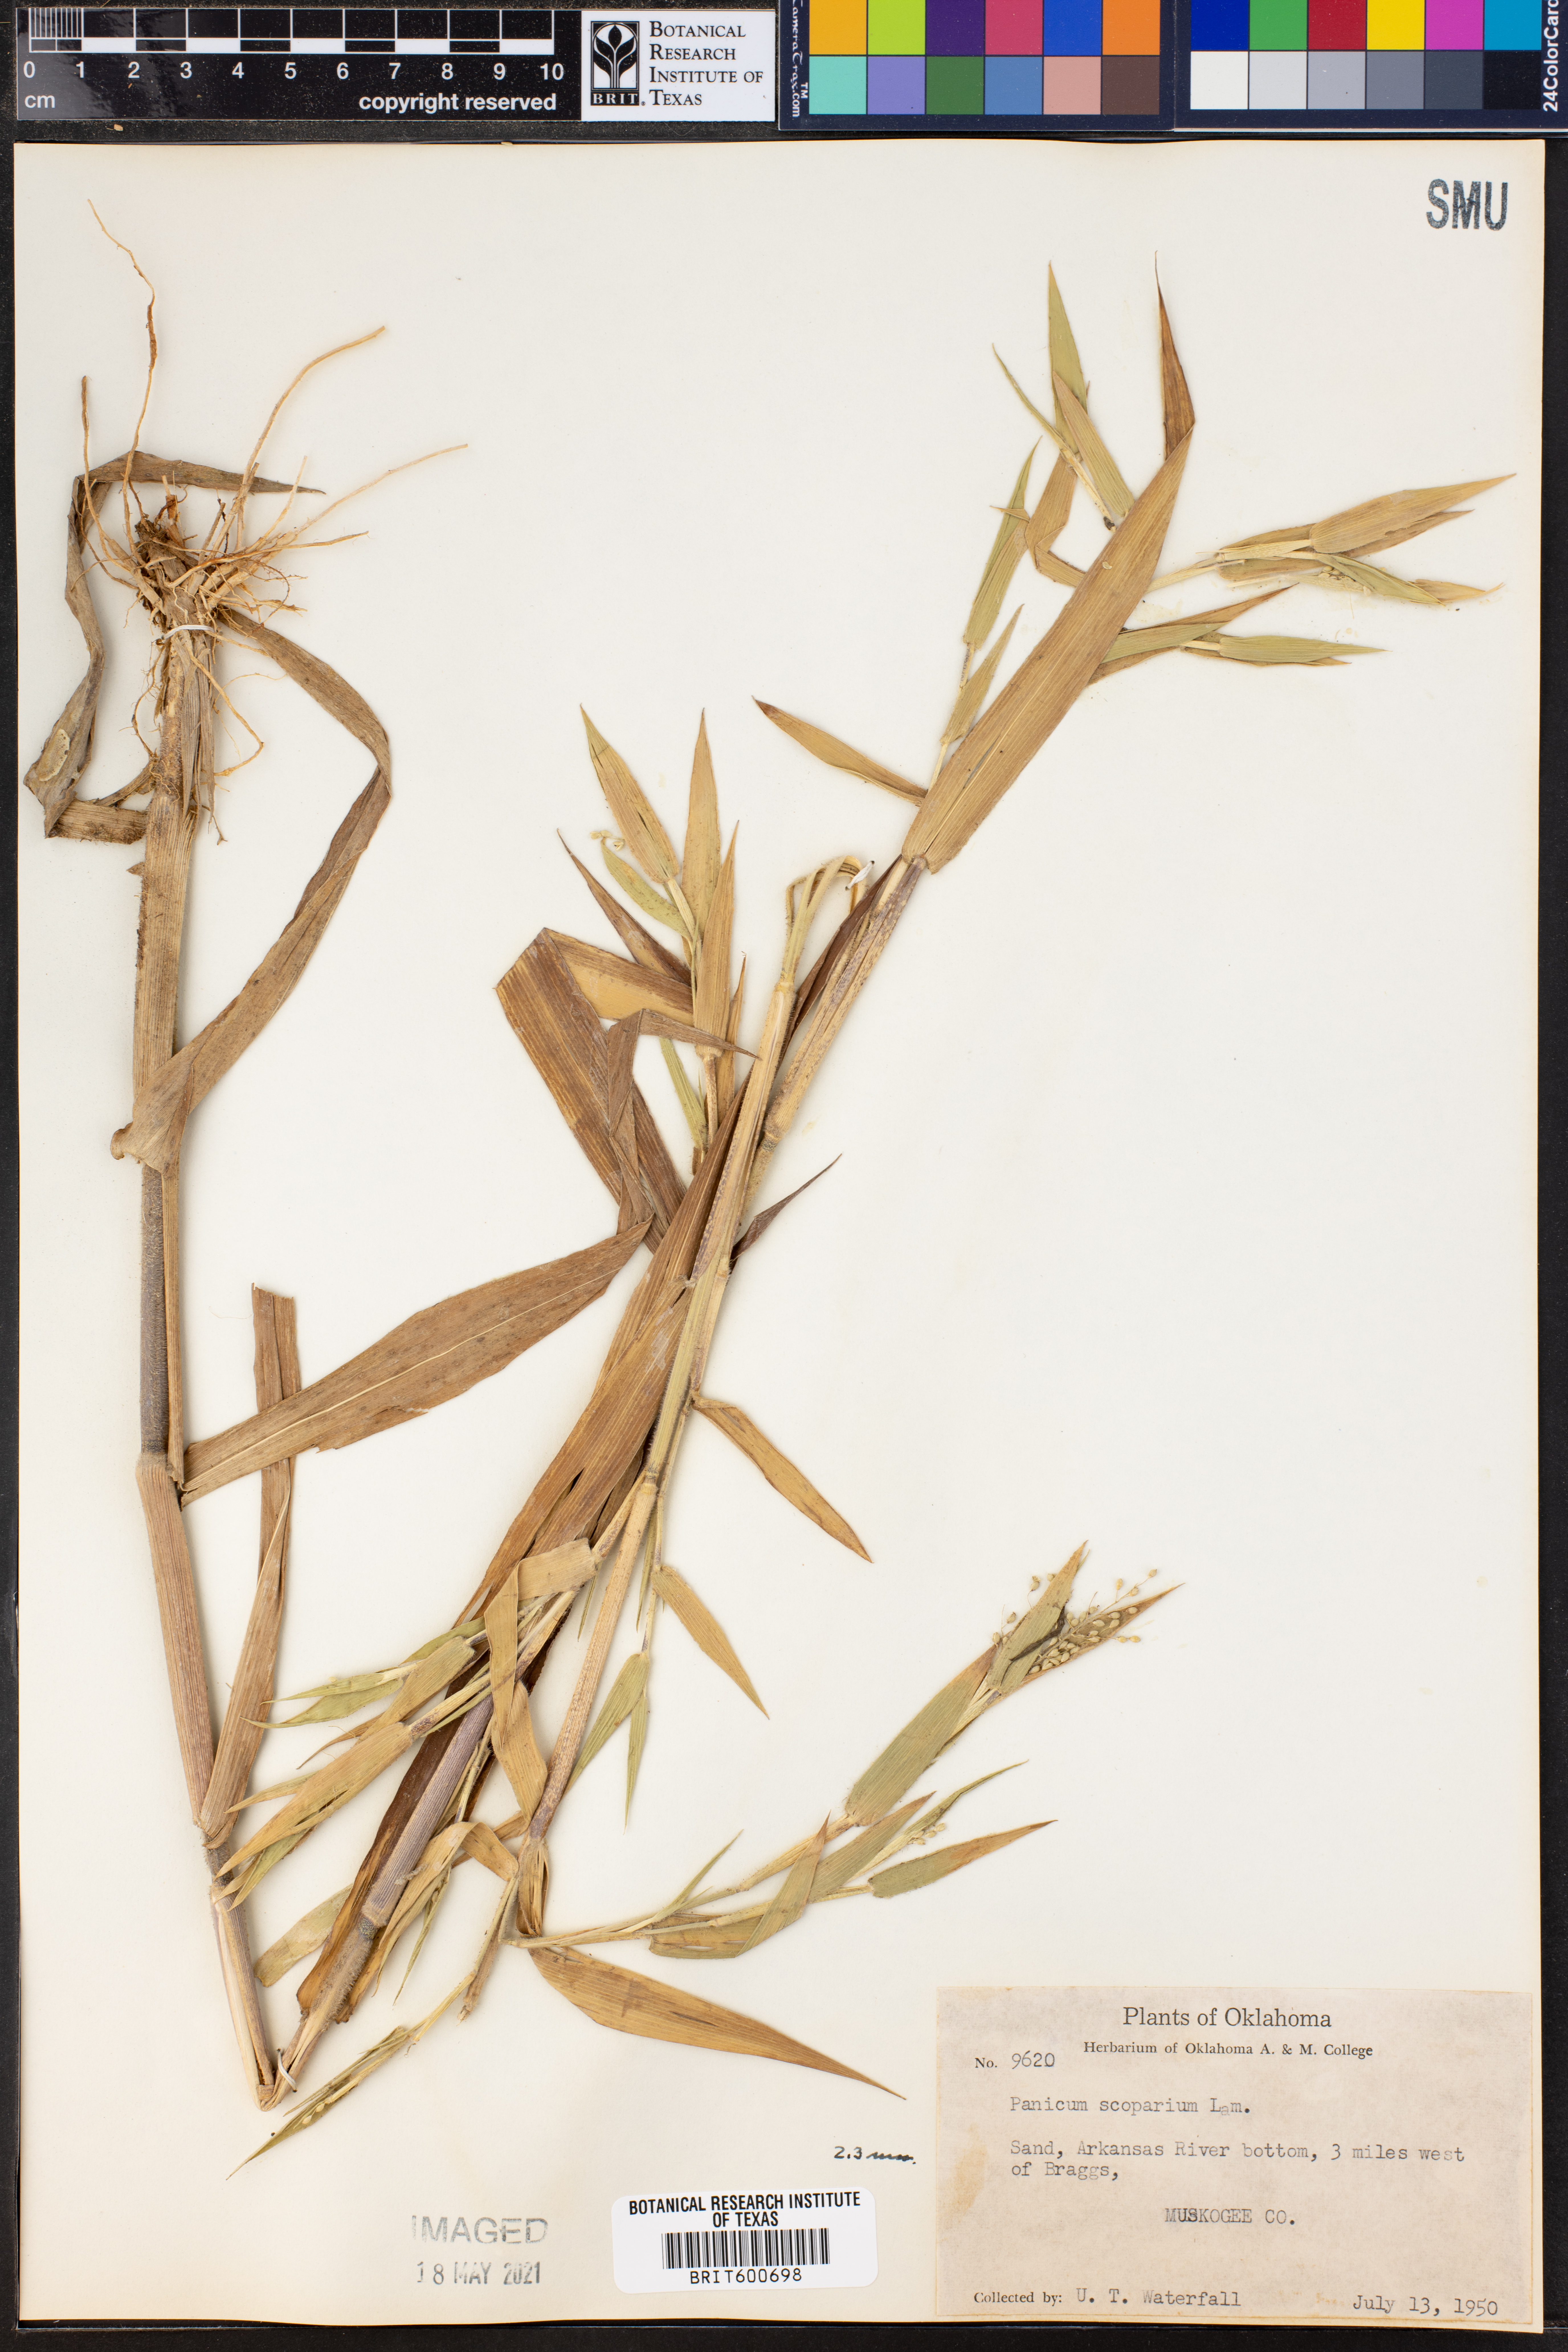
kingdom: Plantae
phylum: Tracheophyta
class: Liliopsida
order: Poales
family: Poaceae
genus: Dichanthelium
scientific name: Dichanthelium scribnerianum
